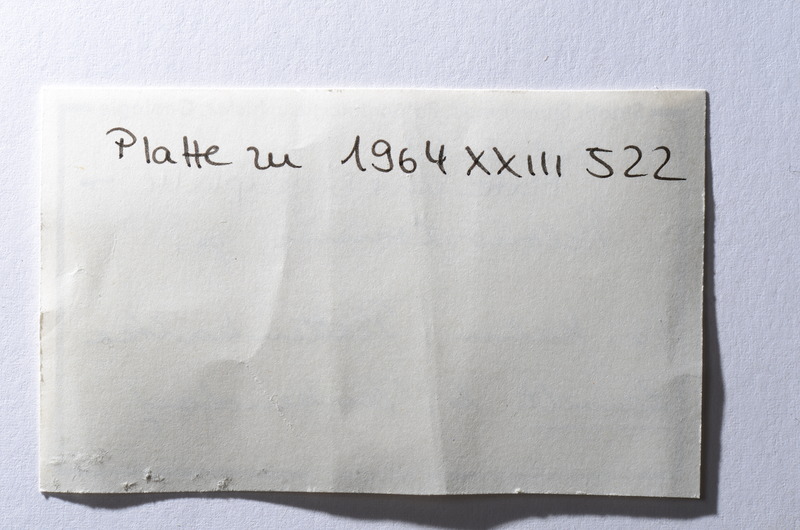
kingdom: Animalia
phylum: Chordata
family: Aspidorhynchidae
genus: Belonostomus
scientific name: Belonostomus
